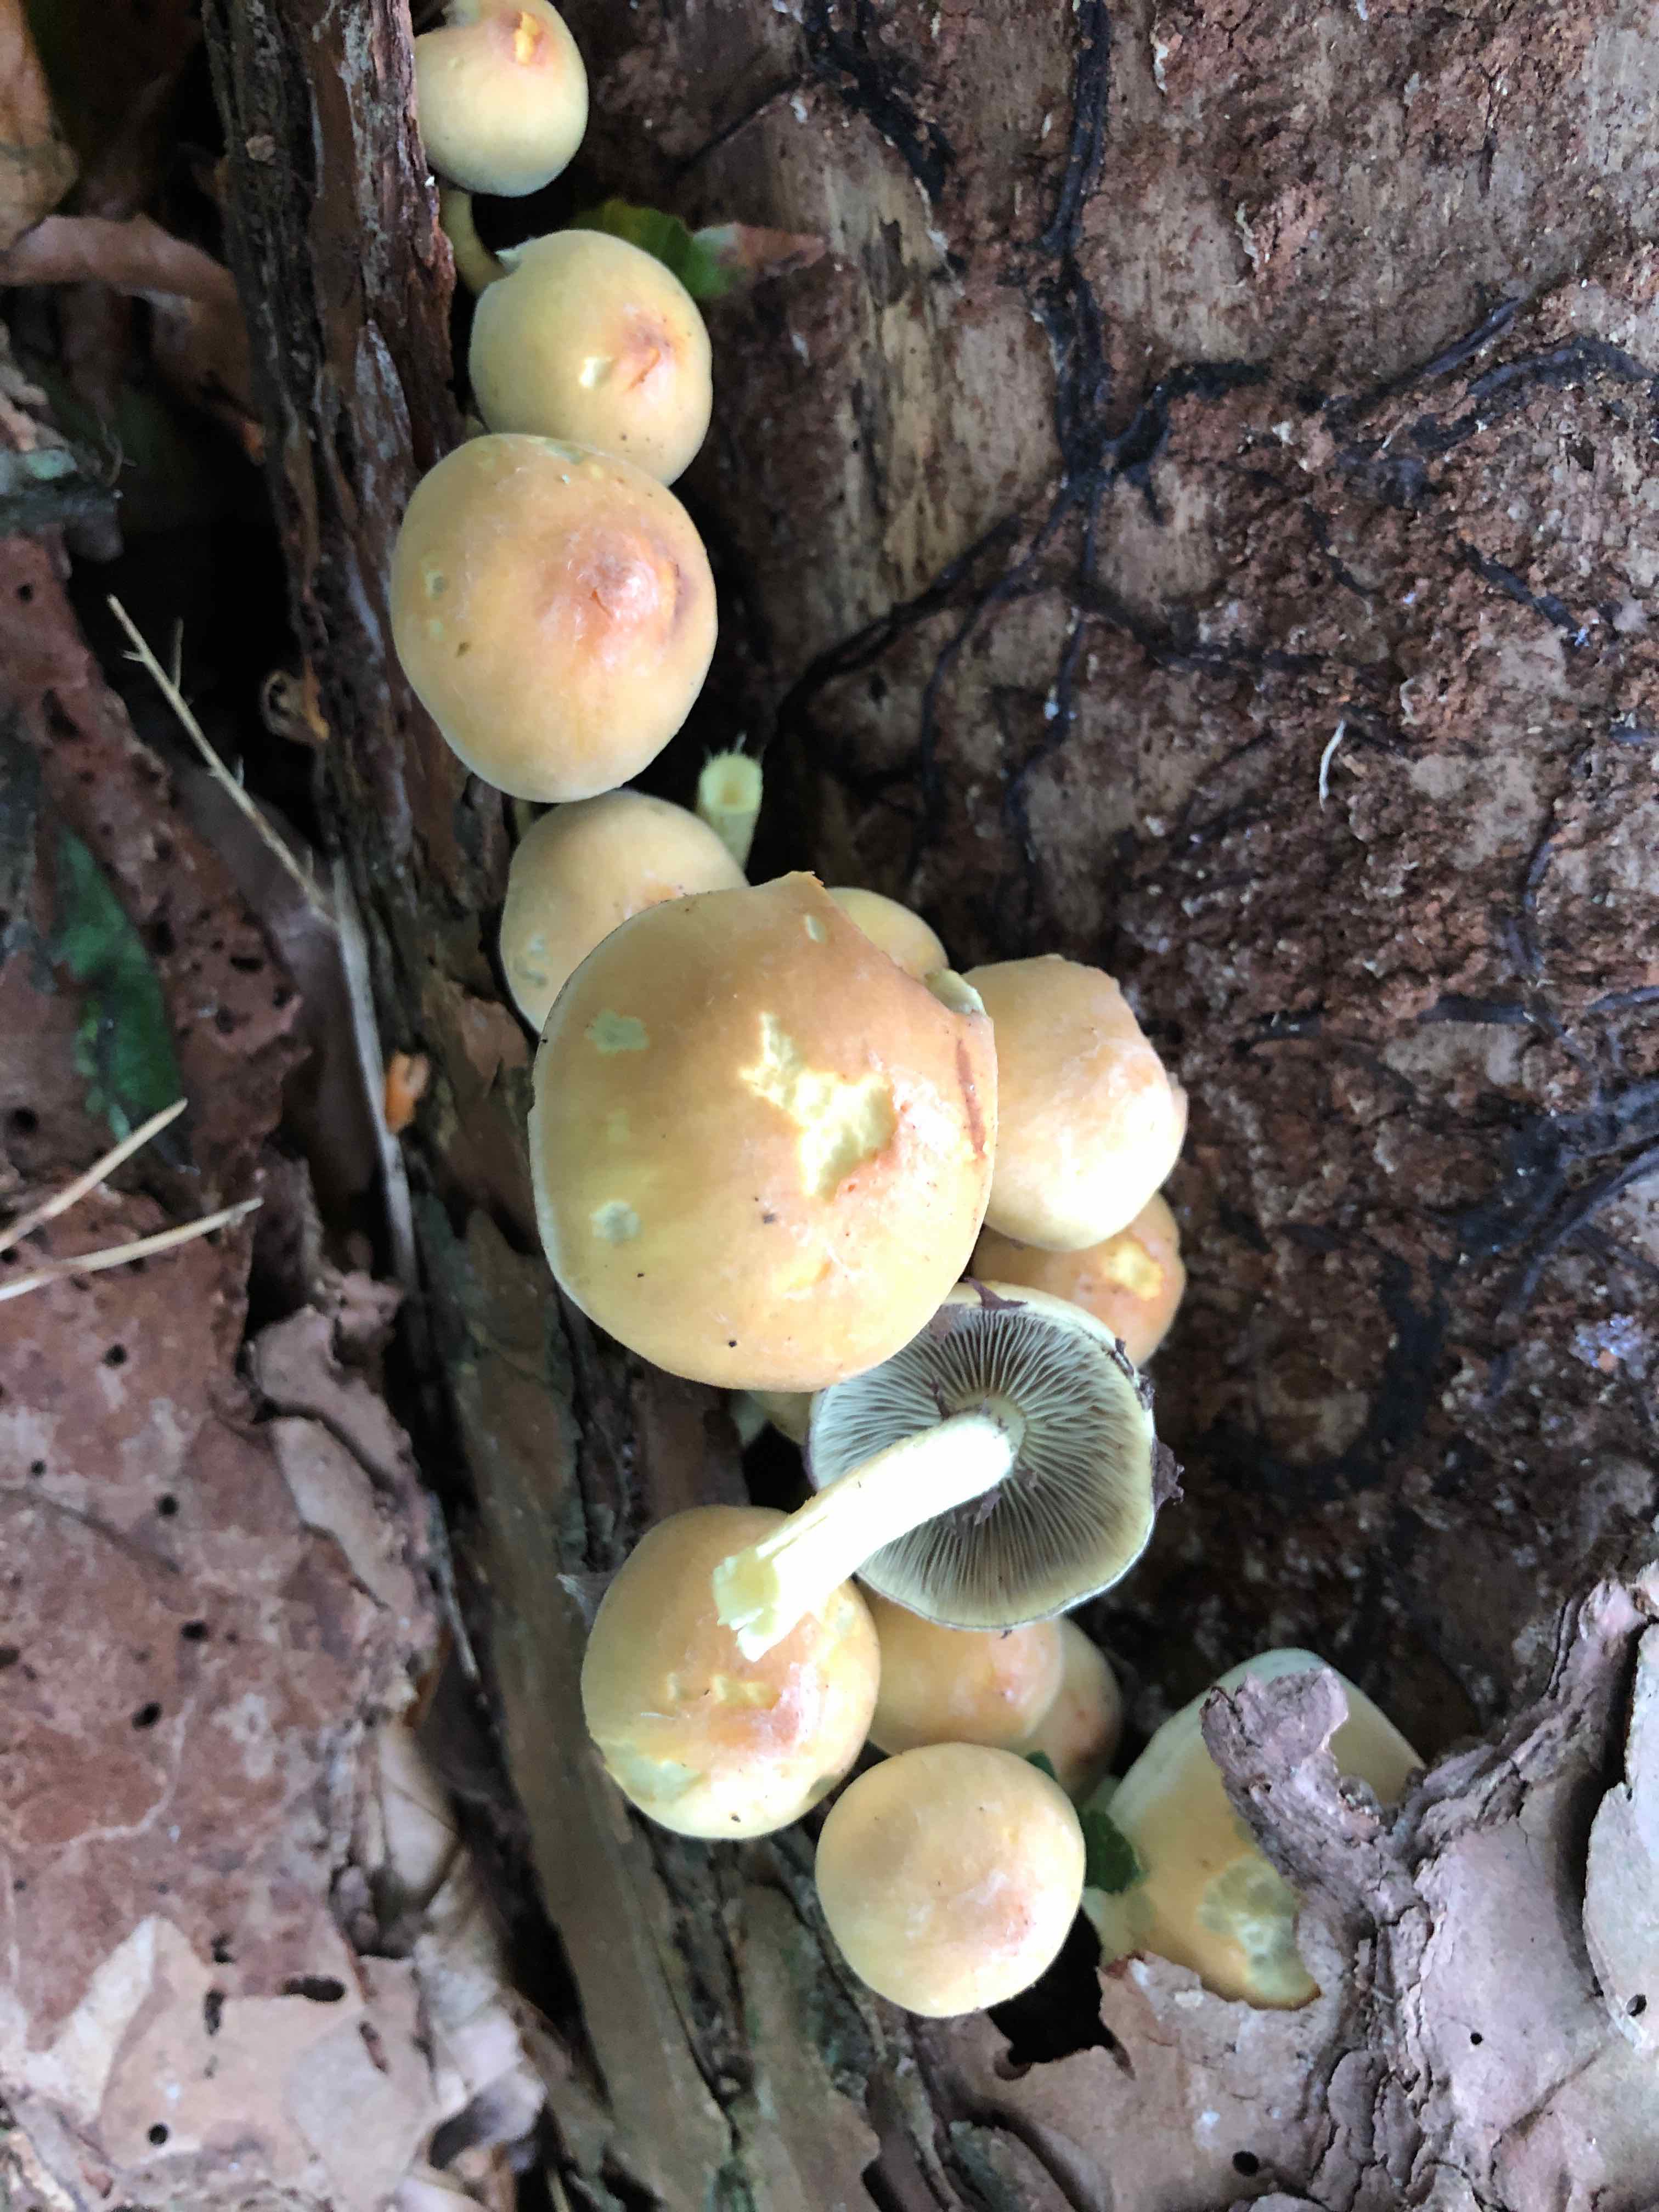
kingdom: Fungi
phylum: Basidiomycota
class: Agaricomycetes
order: Agaricales
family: Strophariaceae
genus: Hypholoma
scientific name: Hypholoma fasciculare
